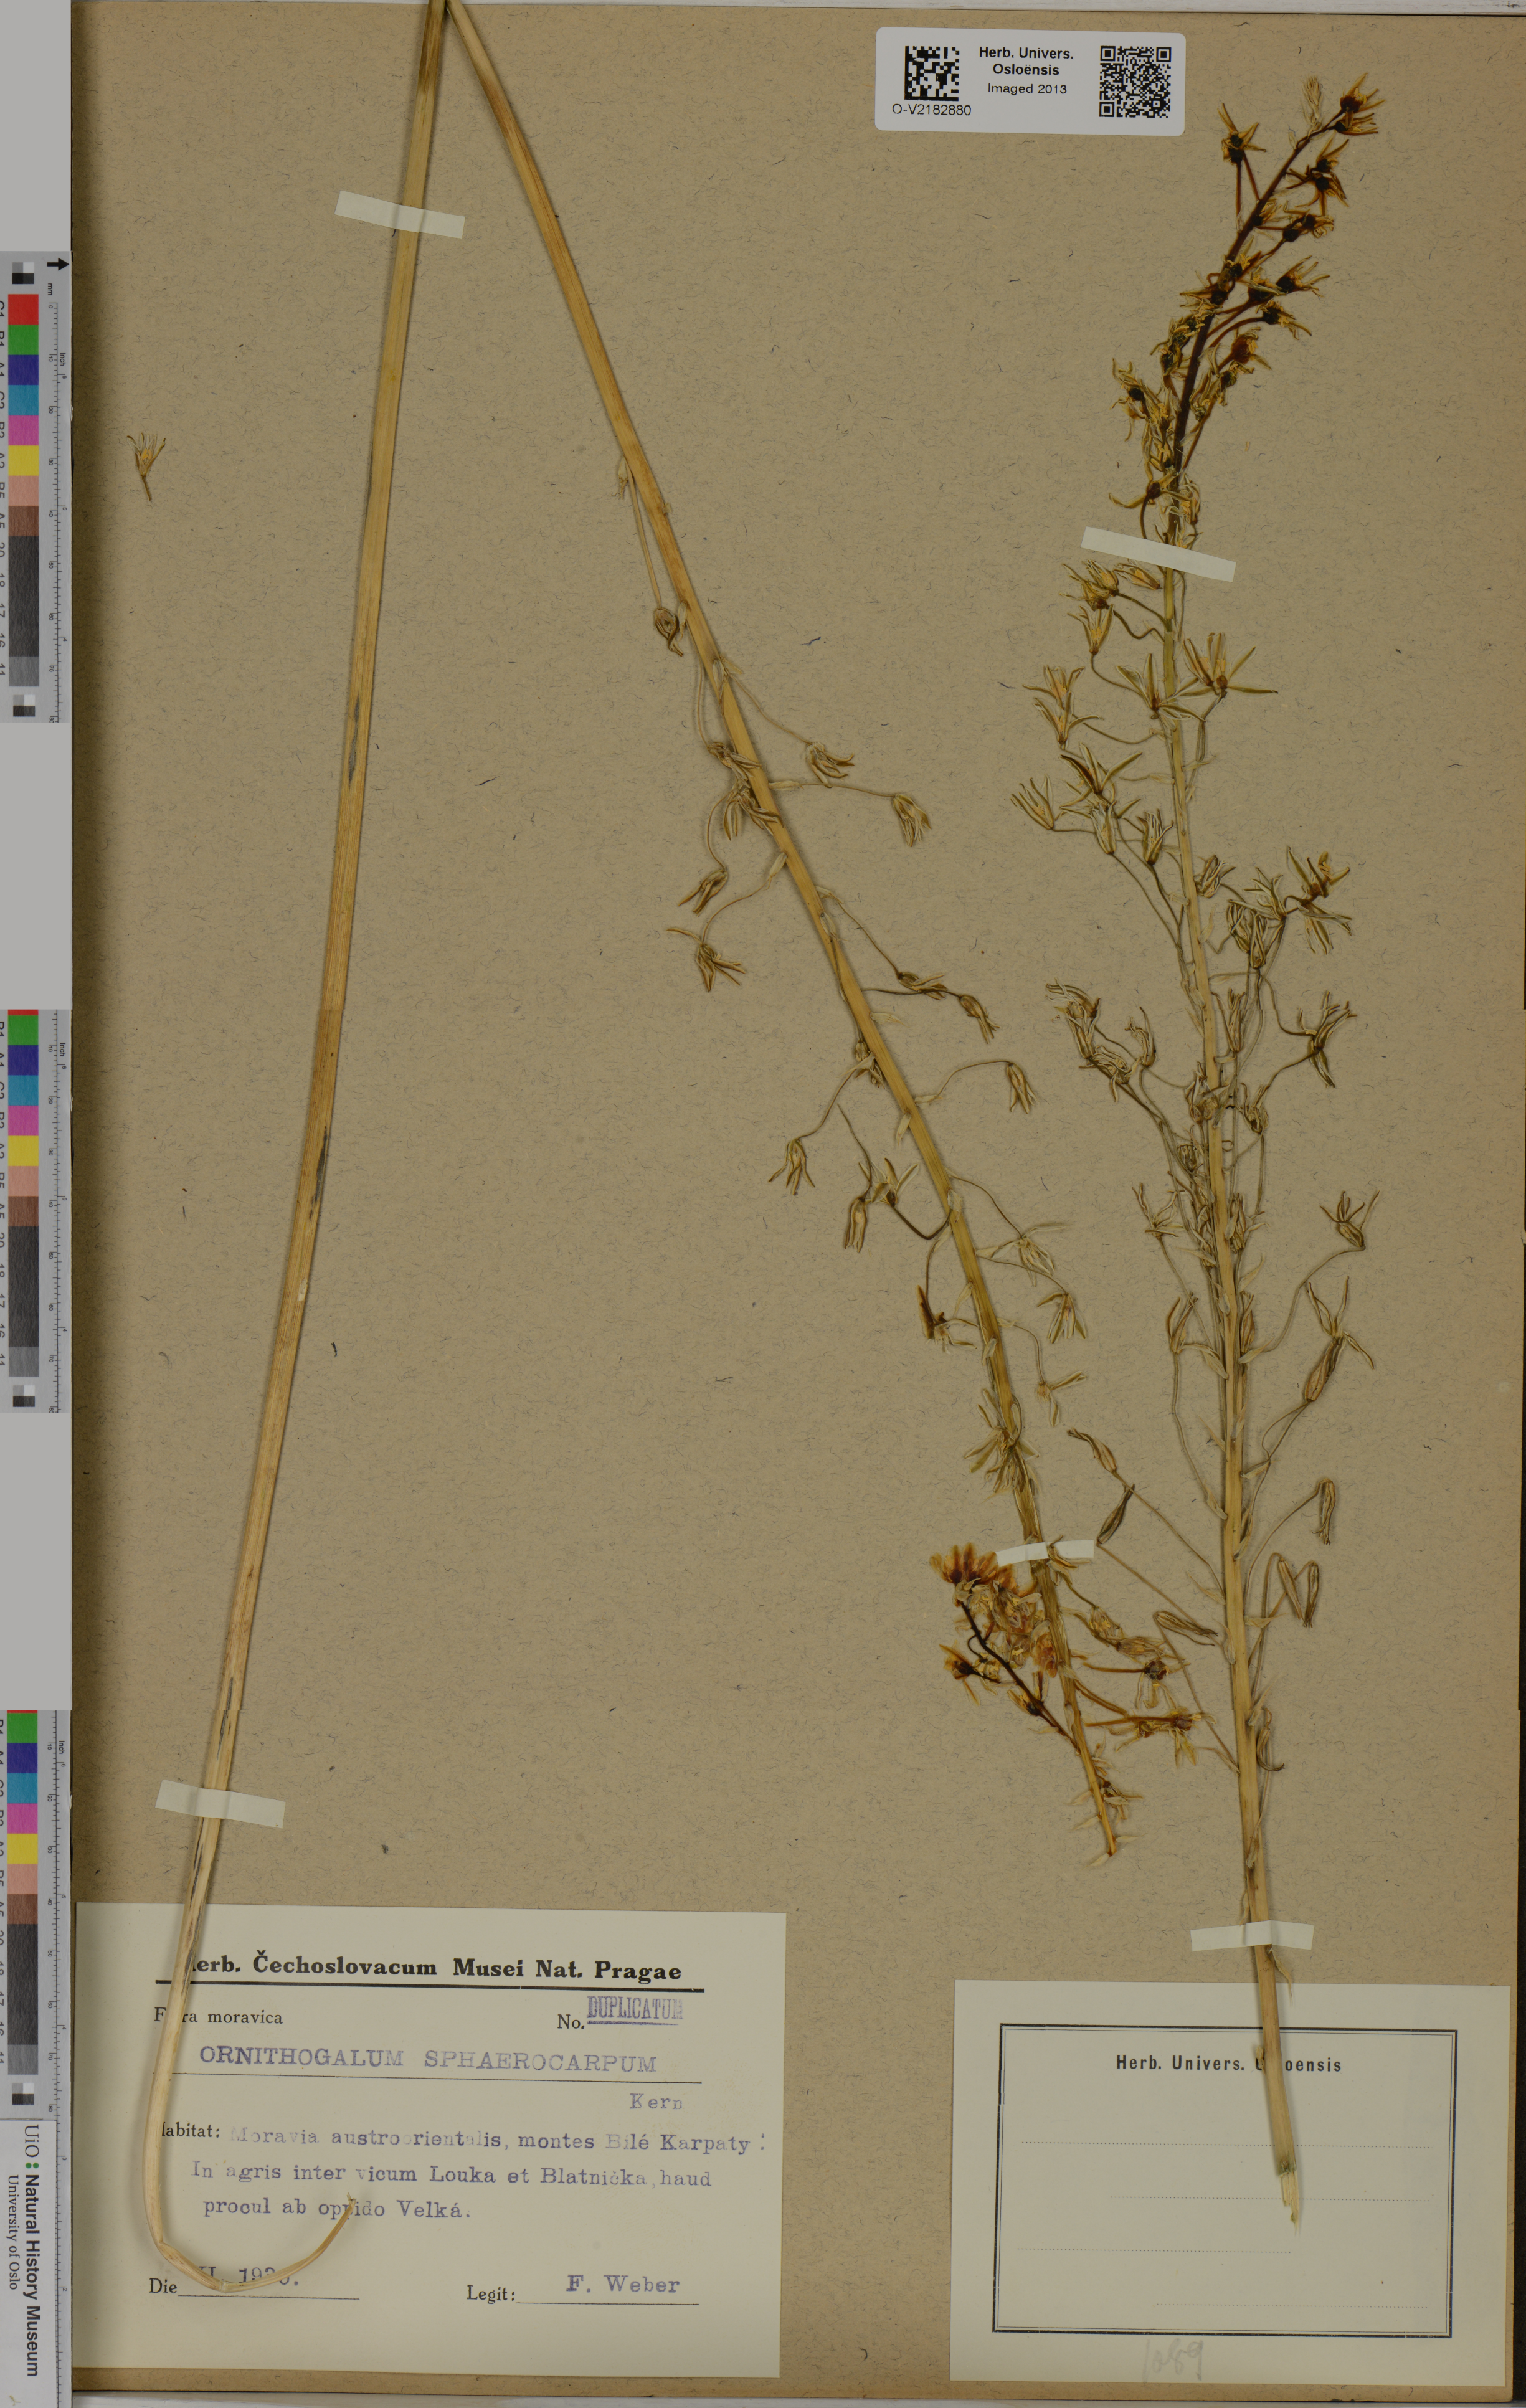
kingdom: Plantae
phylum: Tracheophyta
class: Liliopsida
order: Asparagales
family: Asparagaceae
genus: Ornithogalum
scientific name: Ornithogalum sphaerocarpum
